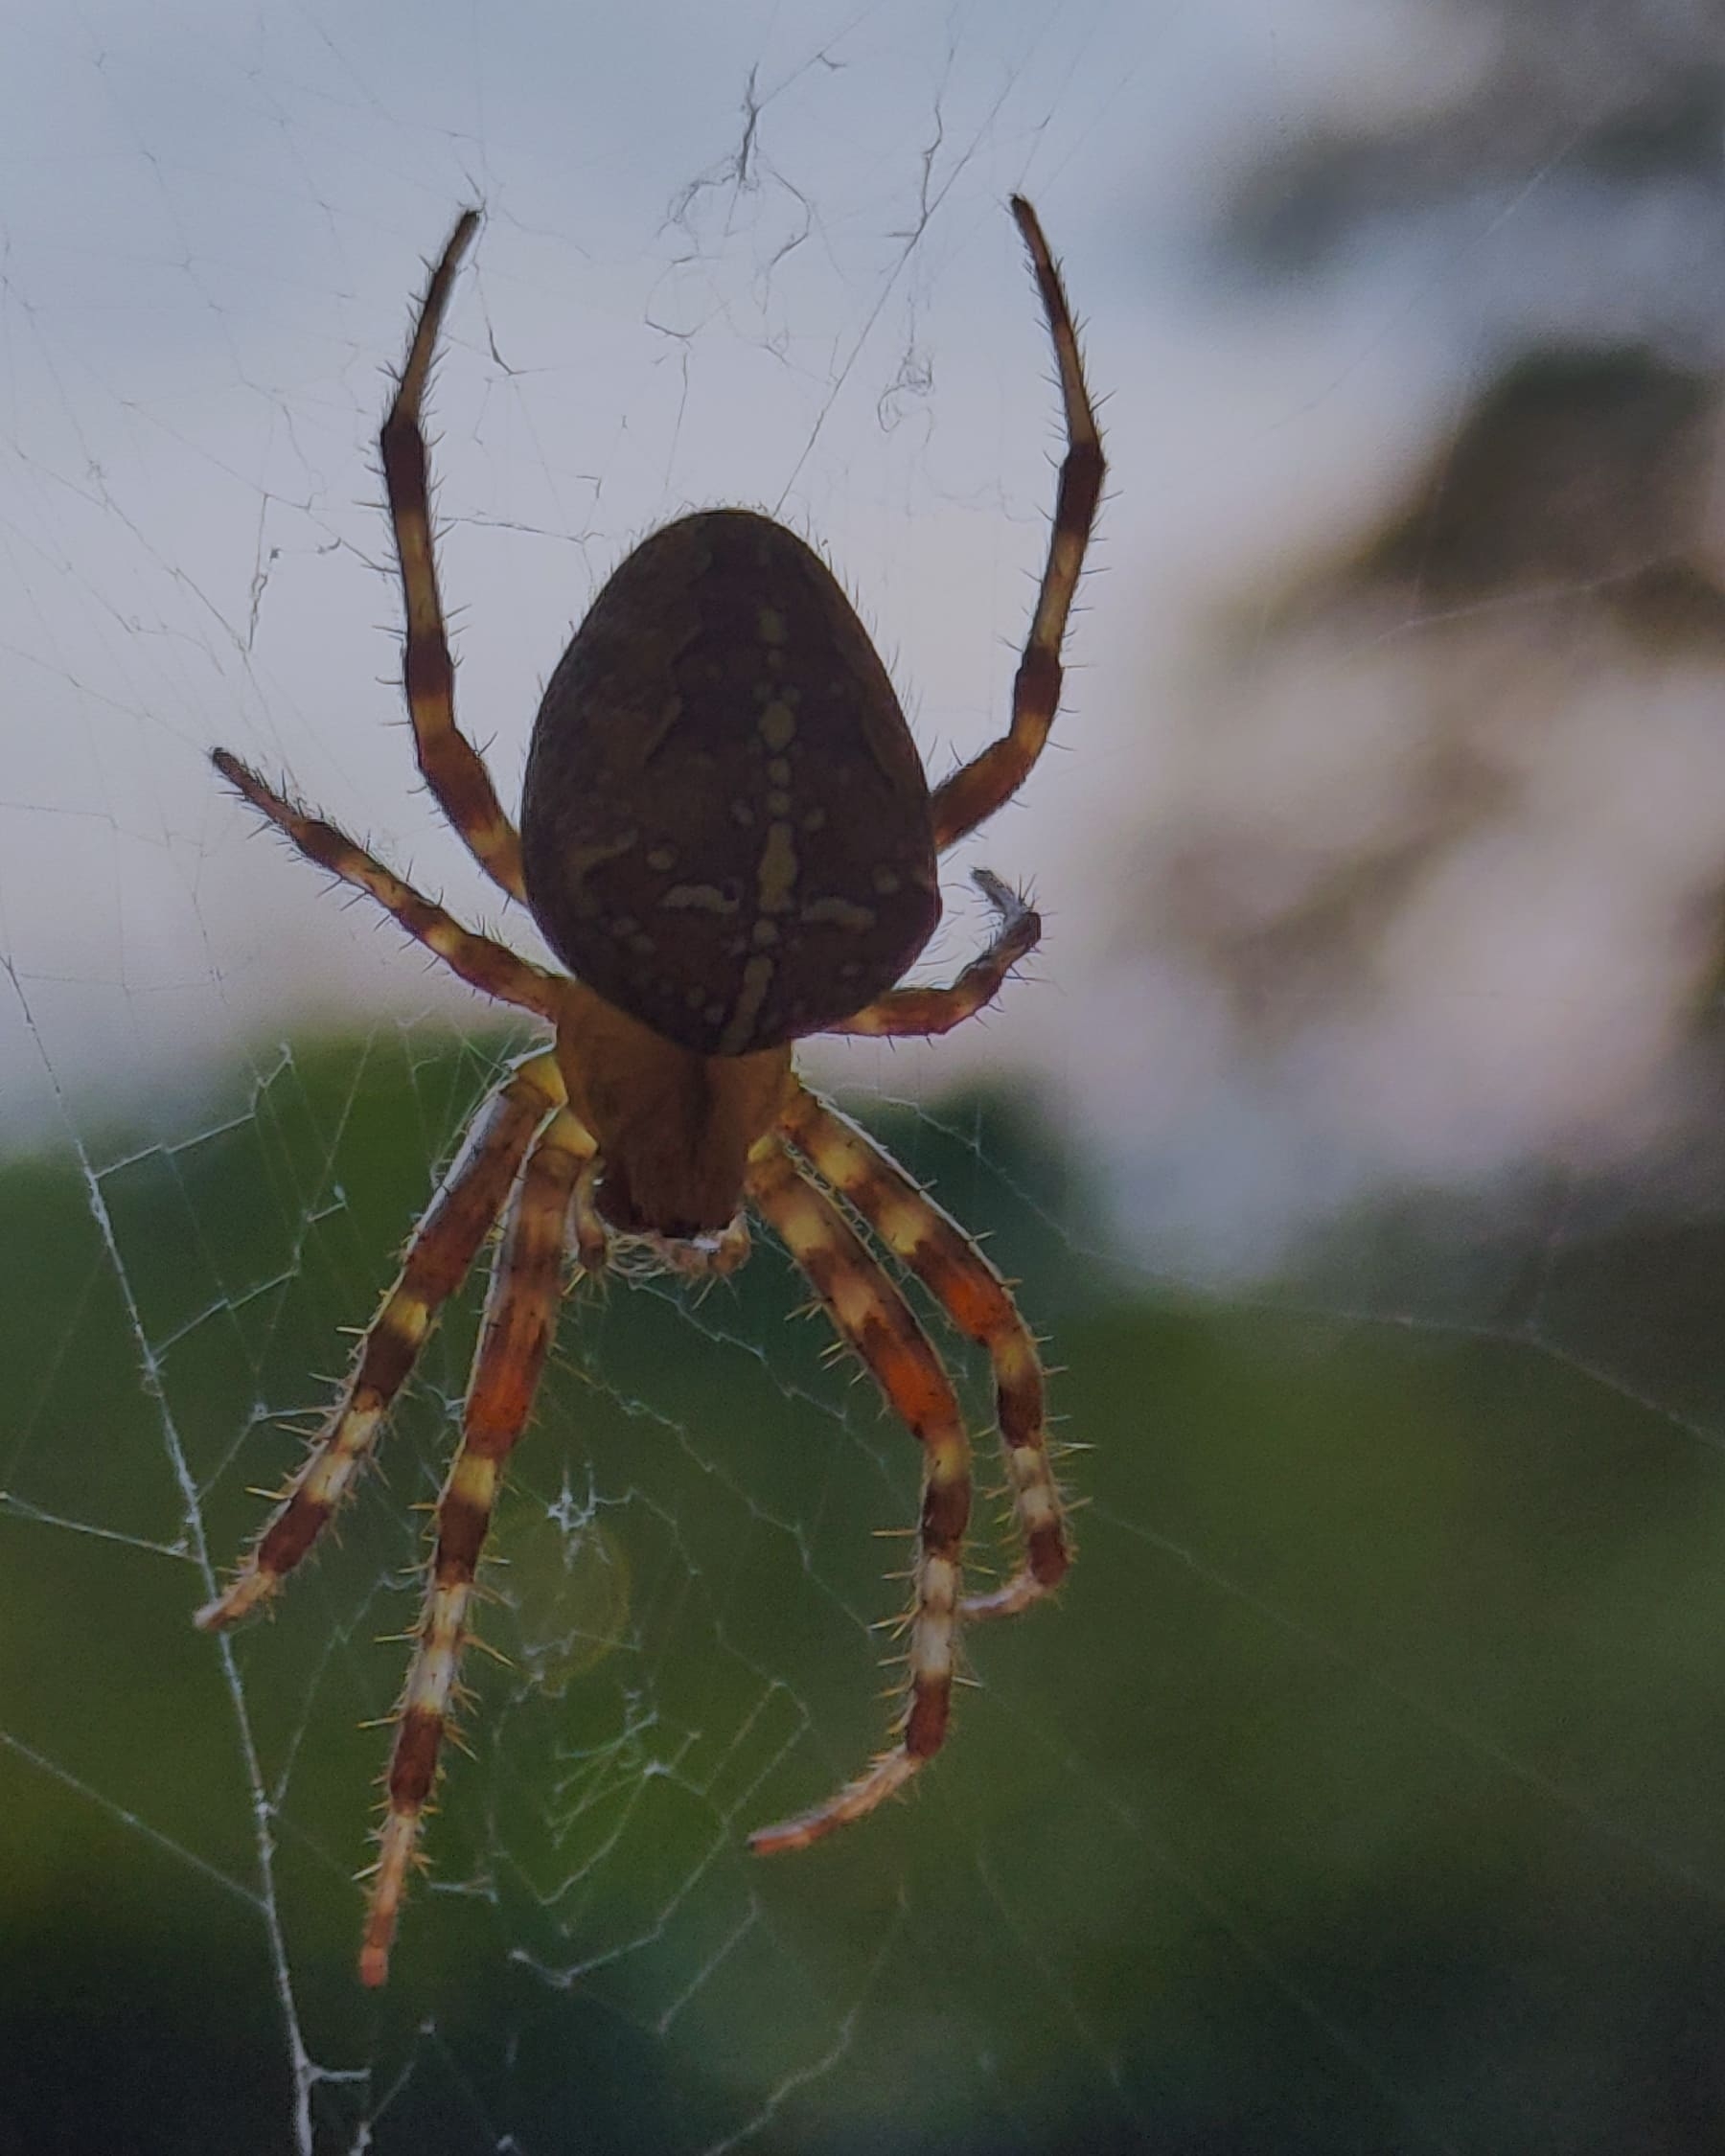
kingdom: Animalia
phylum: Arthropoda
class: Arachnida
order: Araneae
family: Araneidae
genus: Araneus
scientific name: Araneus diadematus
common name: Korsedderkop
